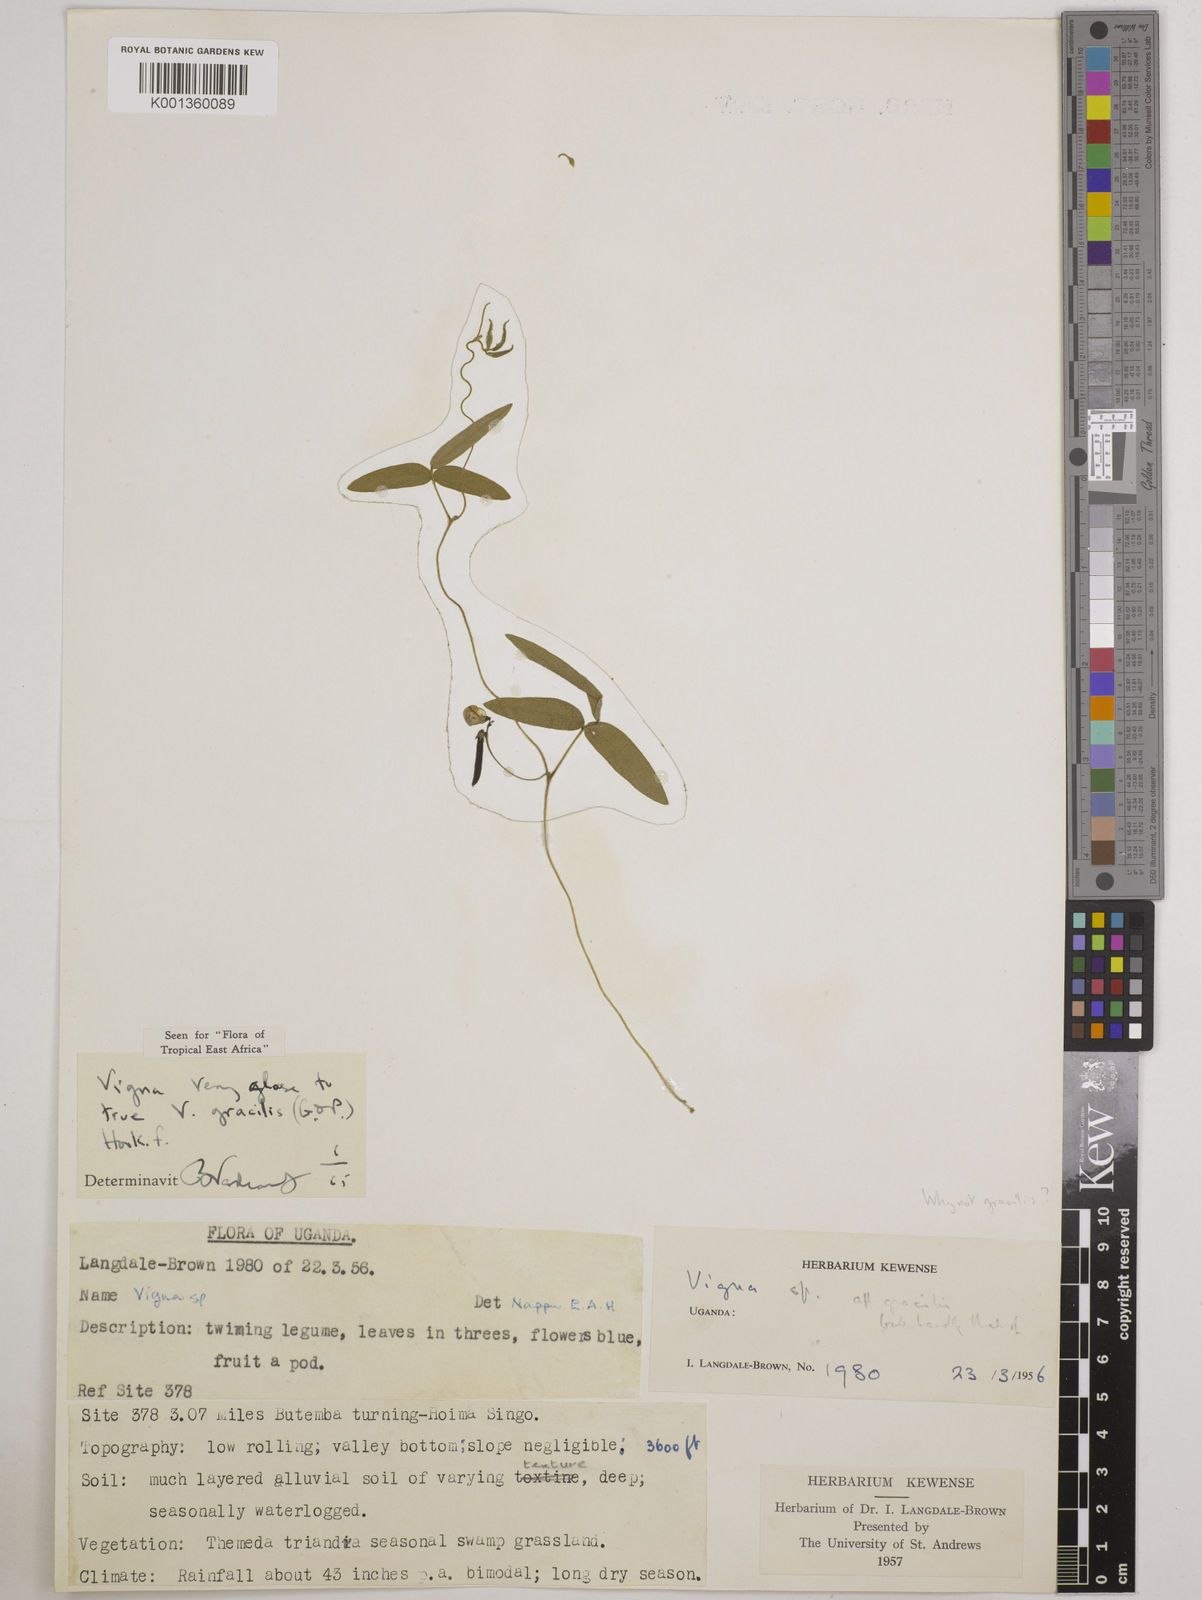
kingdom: Plantae
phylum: Tracheophyta
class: Magnoliopsida
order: Fabales
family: Fabaceae
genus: Vigna
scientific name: Vigna gracilis
